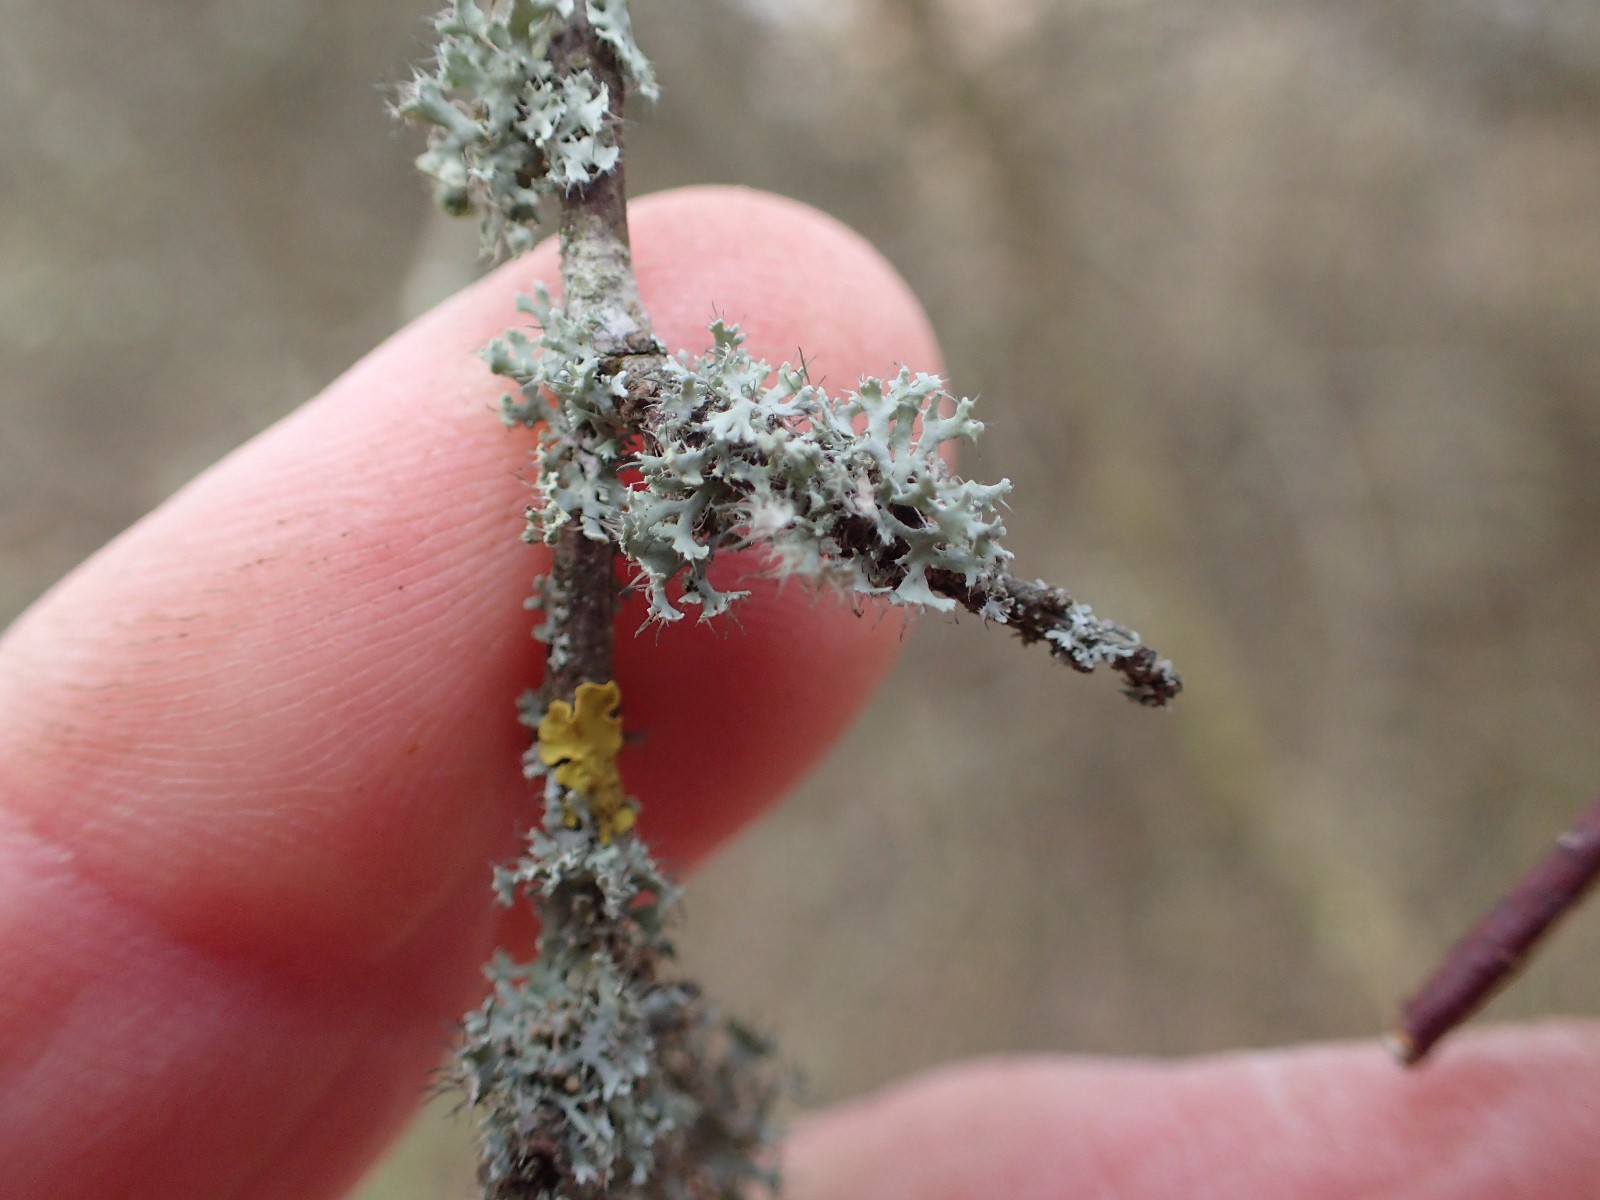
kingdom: Fungi
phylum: Ascomycota
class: Lecanoromycetes
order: Caliciales
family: Physciaceae
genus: Physcia
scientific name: Physcia tenella
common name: spæd rosetlav
